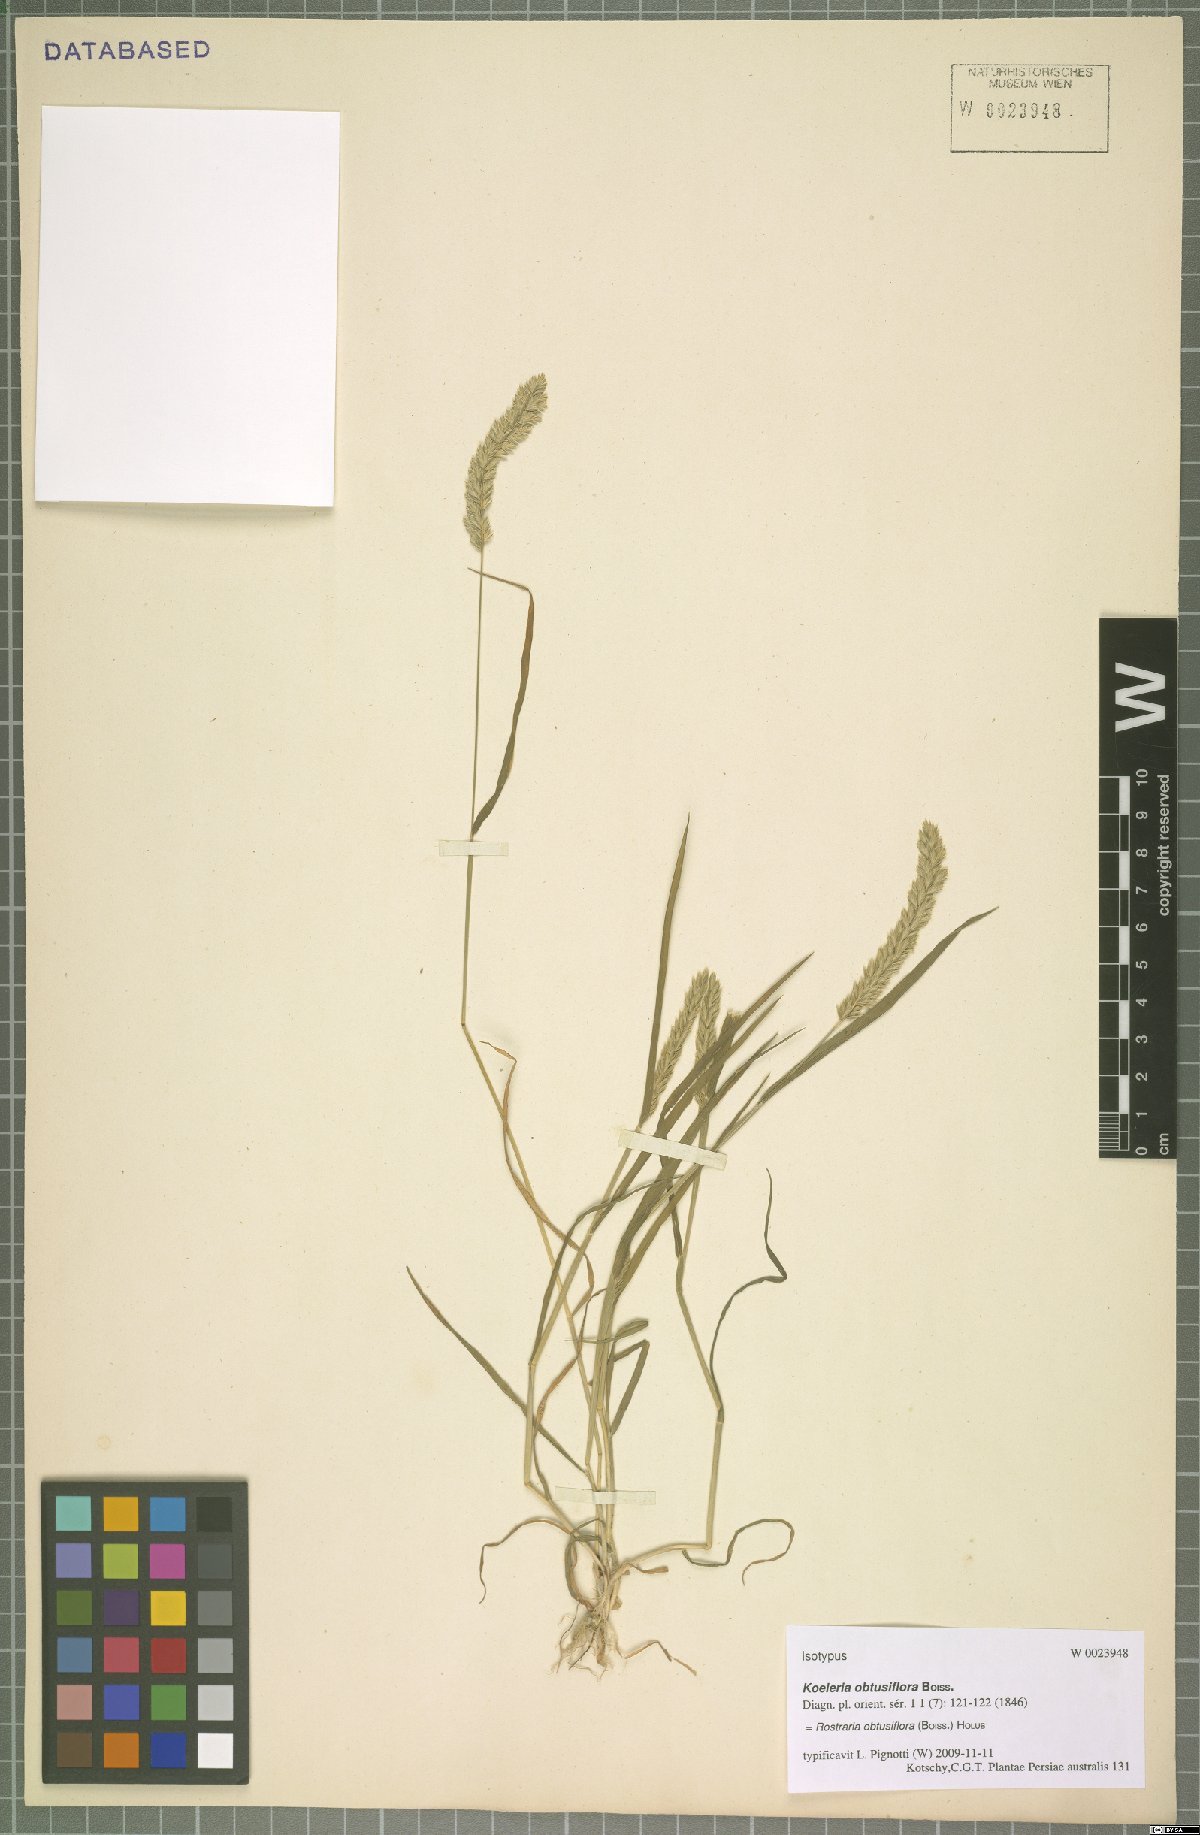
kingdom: Plantae
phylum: Tracheophyta
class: Liliopsida
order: Poales
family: Poaceae
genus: Rostraria
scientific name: Rostraria obtusiflora
